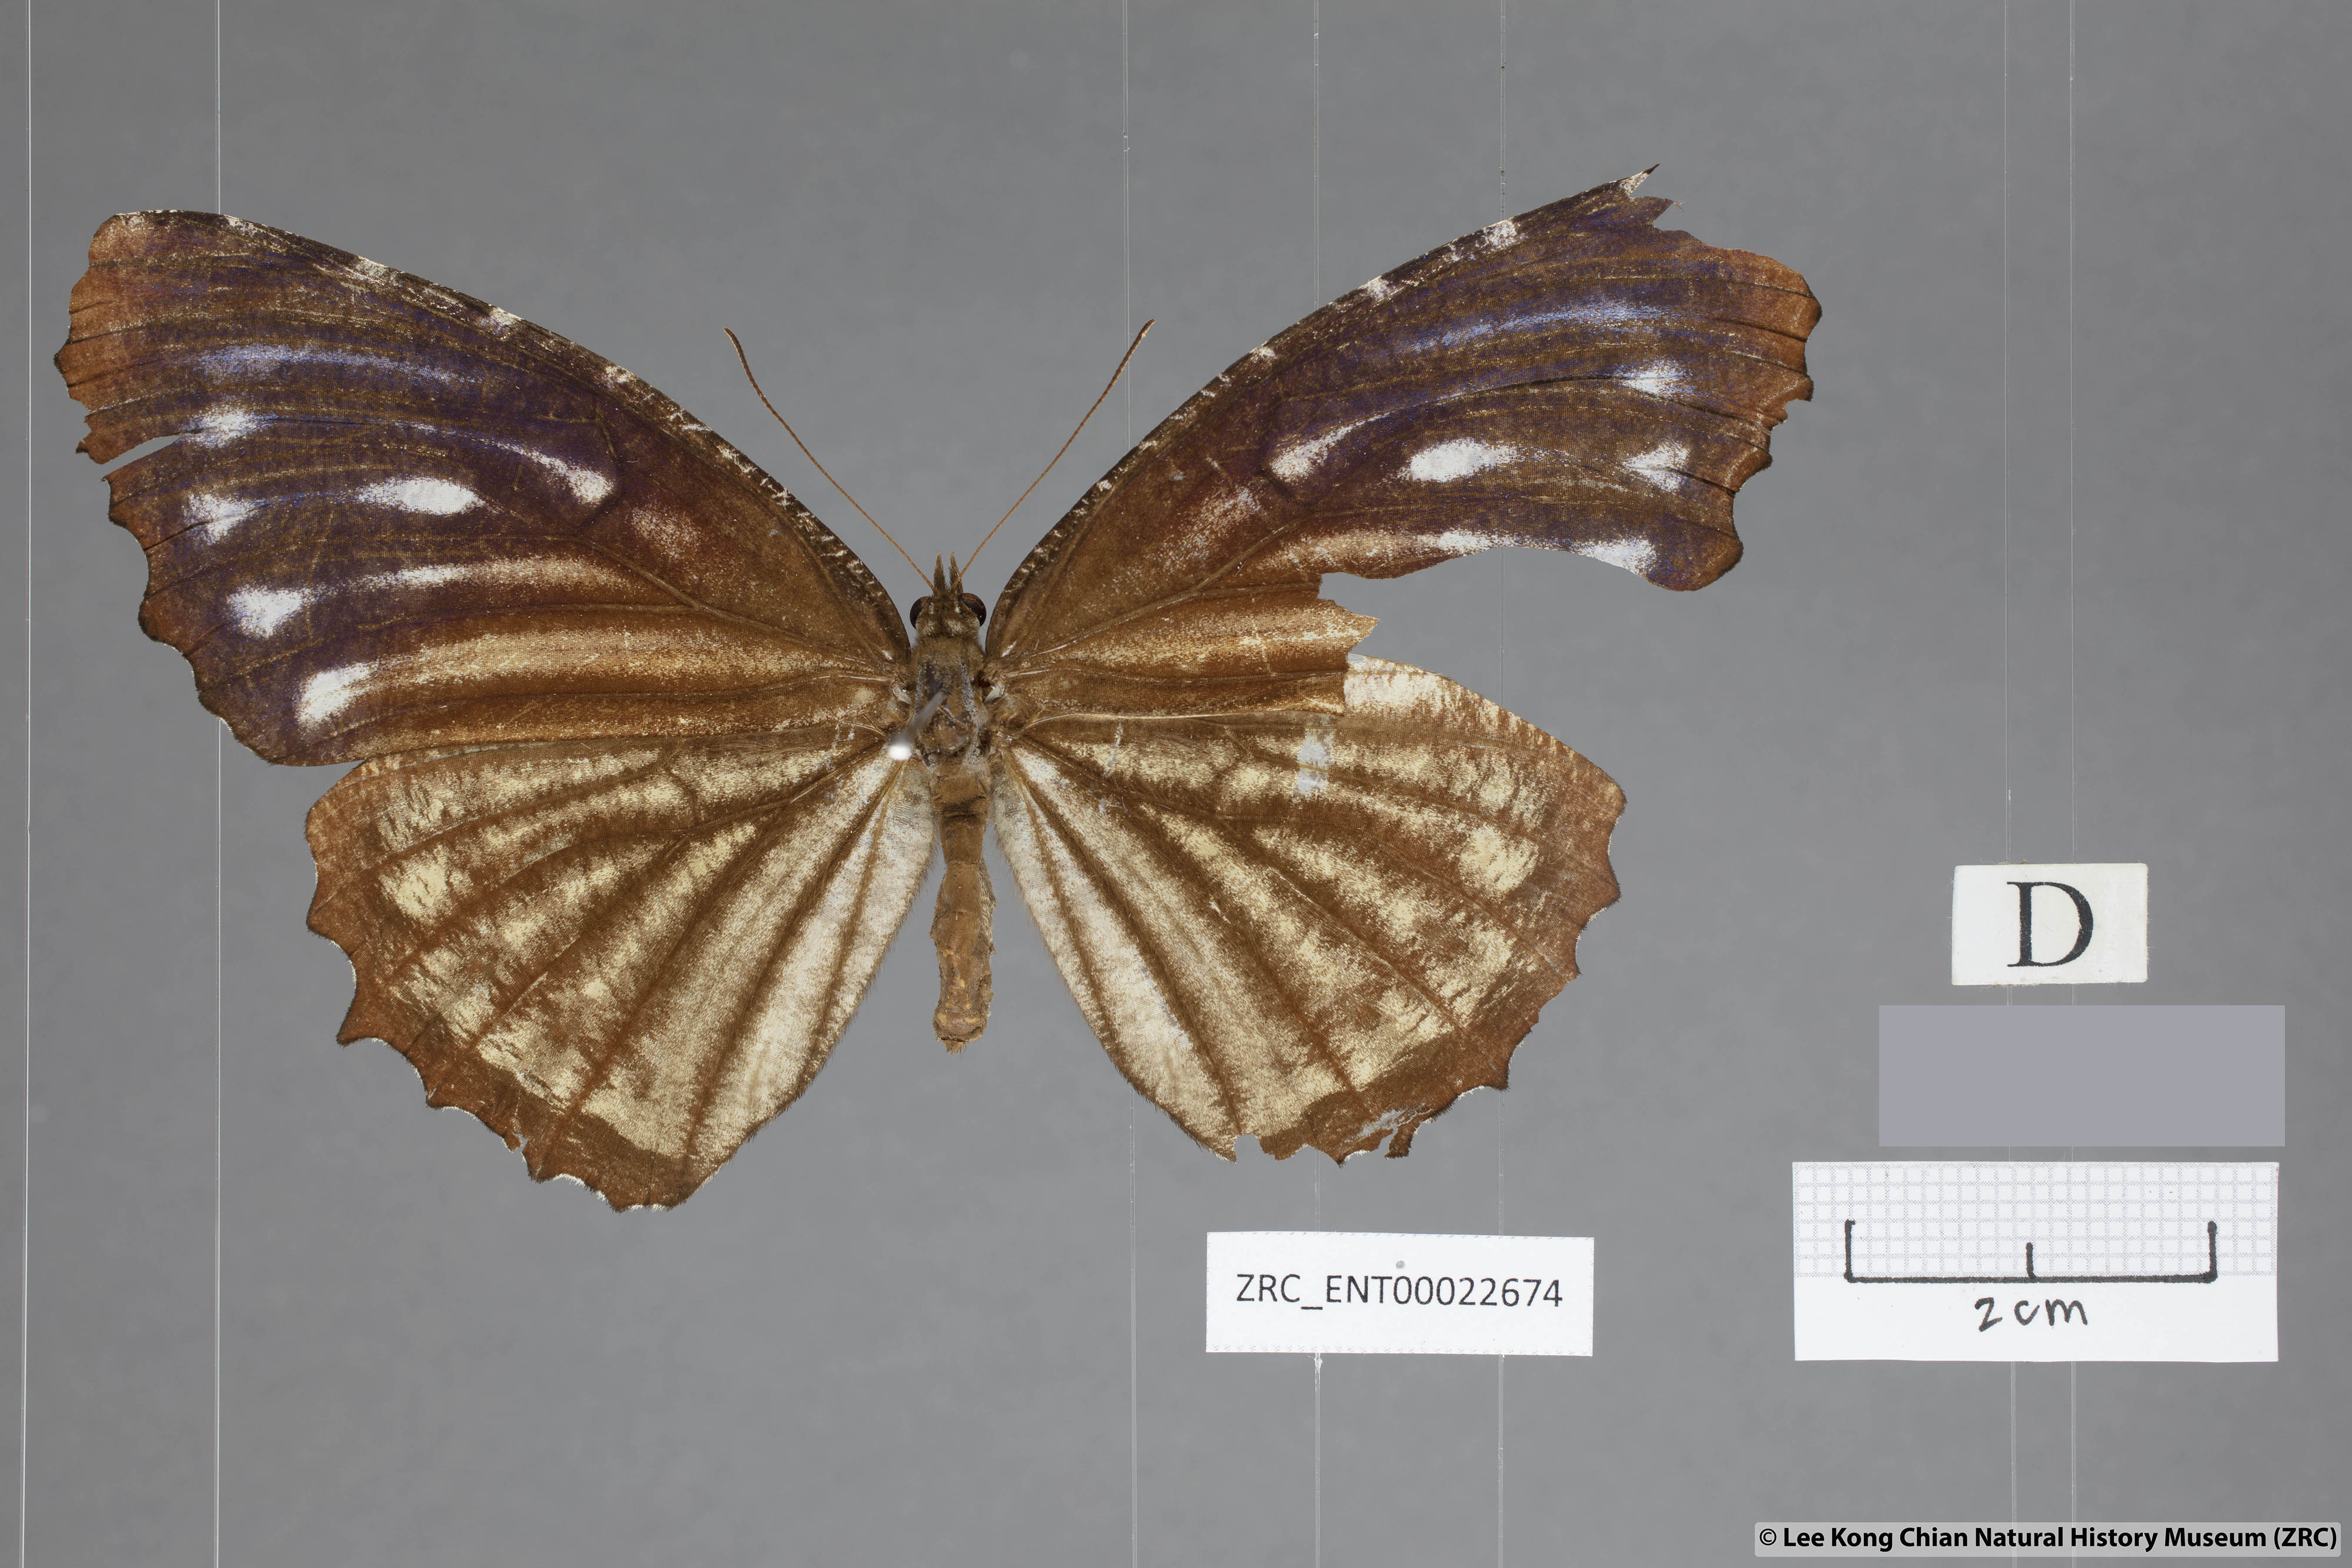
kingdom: Animalia
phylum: Arthropoda
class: Insecta
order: Lepidoptera
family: Nymphalidae
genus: Elymnias
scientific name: Elymnias casiphone
